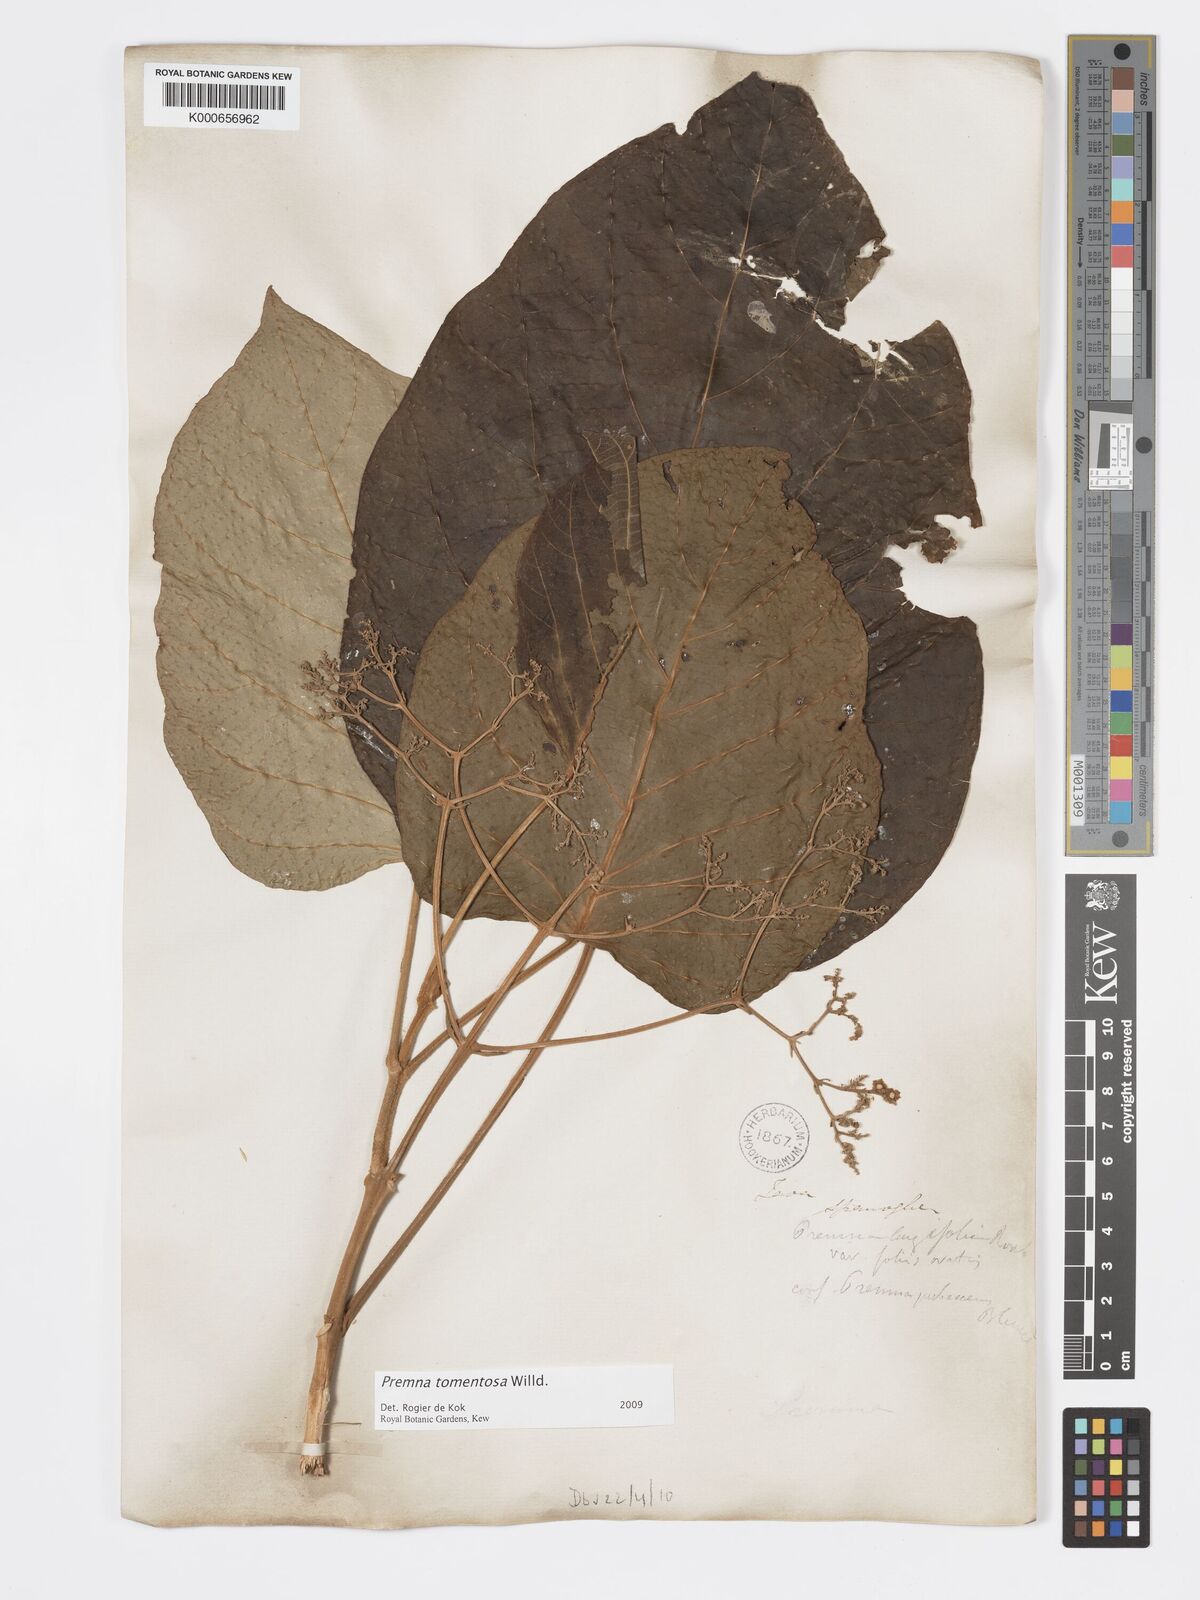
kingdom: Plantae
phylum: Tracheophyta
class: Magnoliopsida
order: Lamiales
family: Lamiaceae
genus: Premna
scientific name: Premna tomentosa
